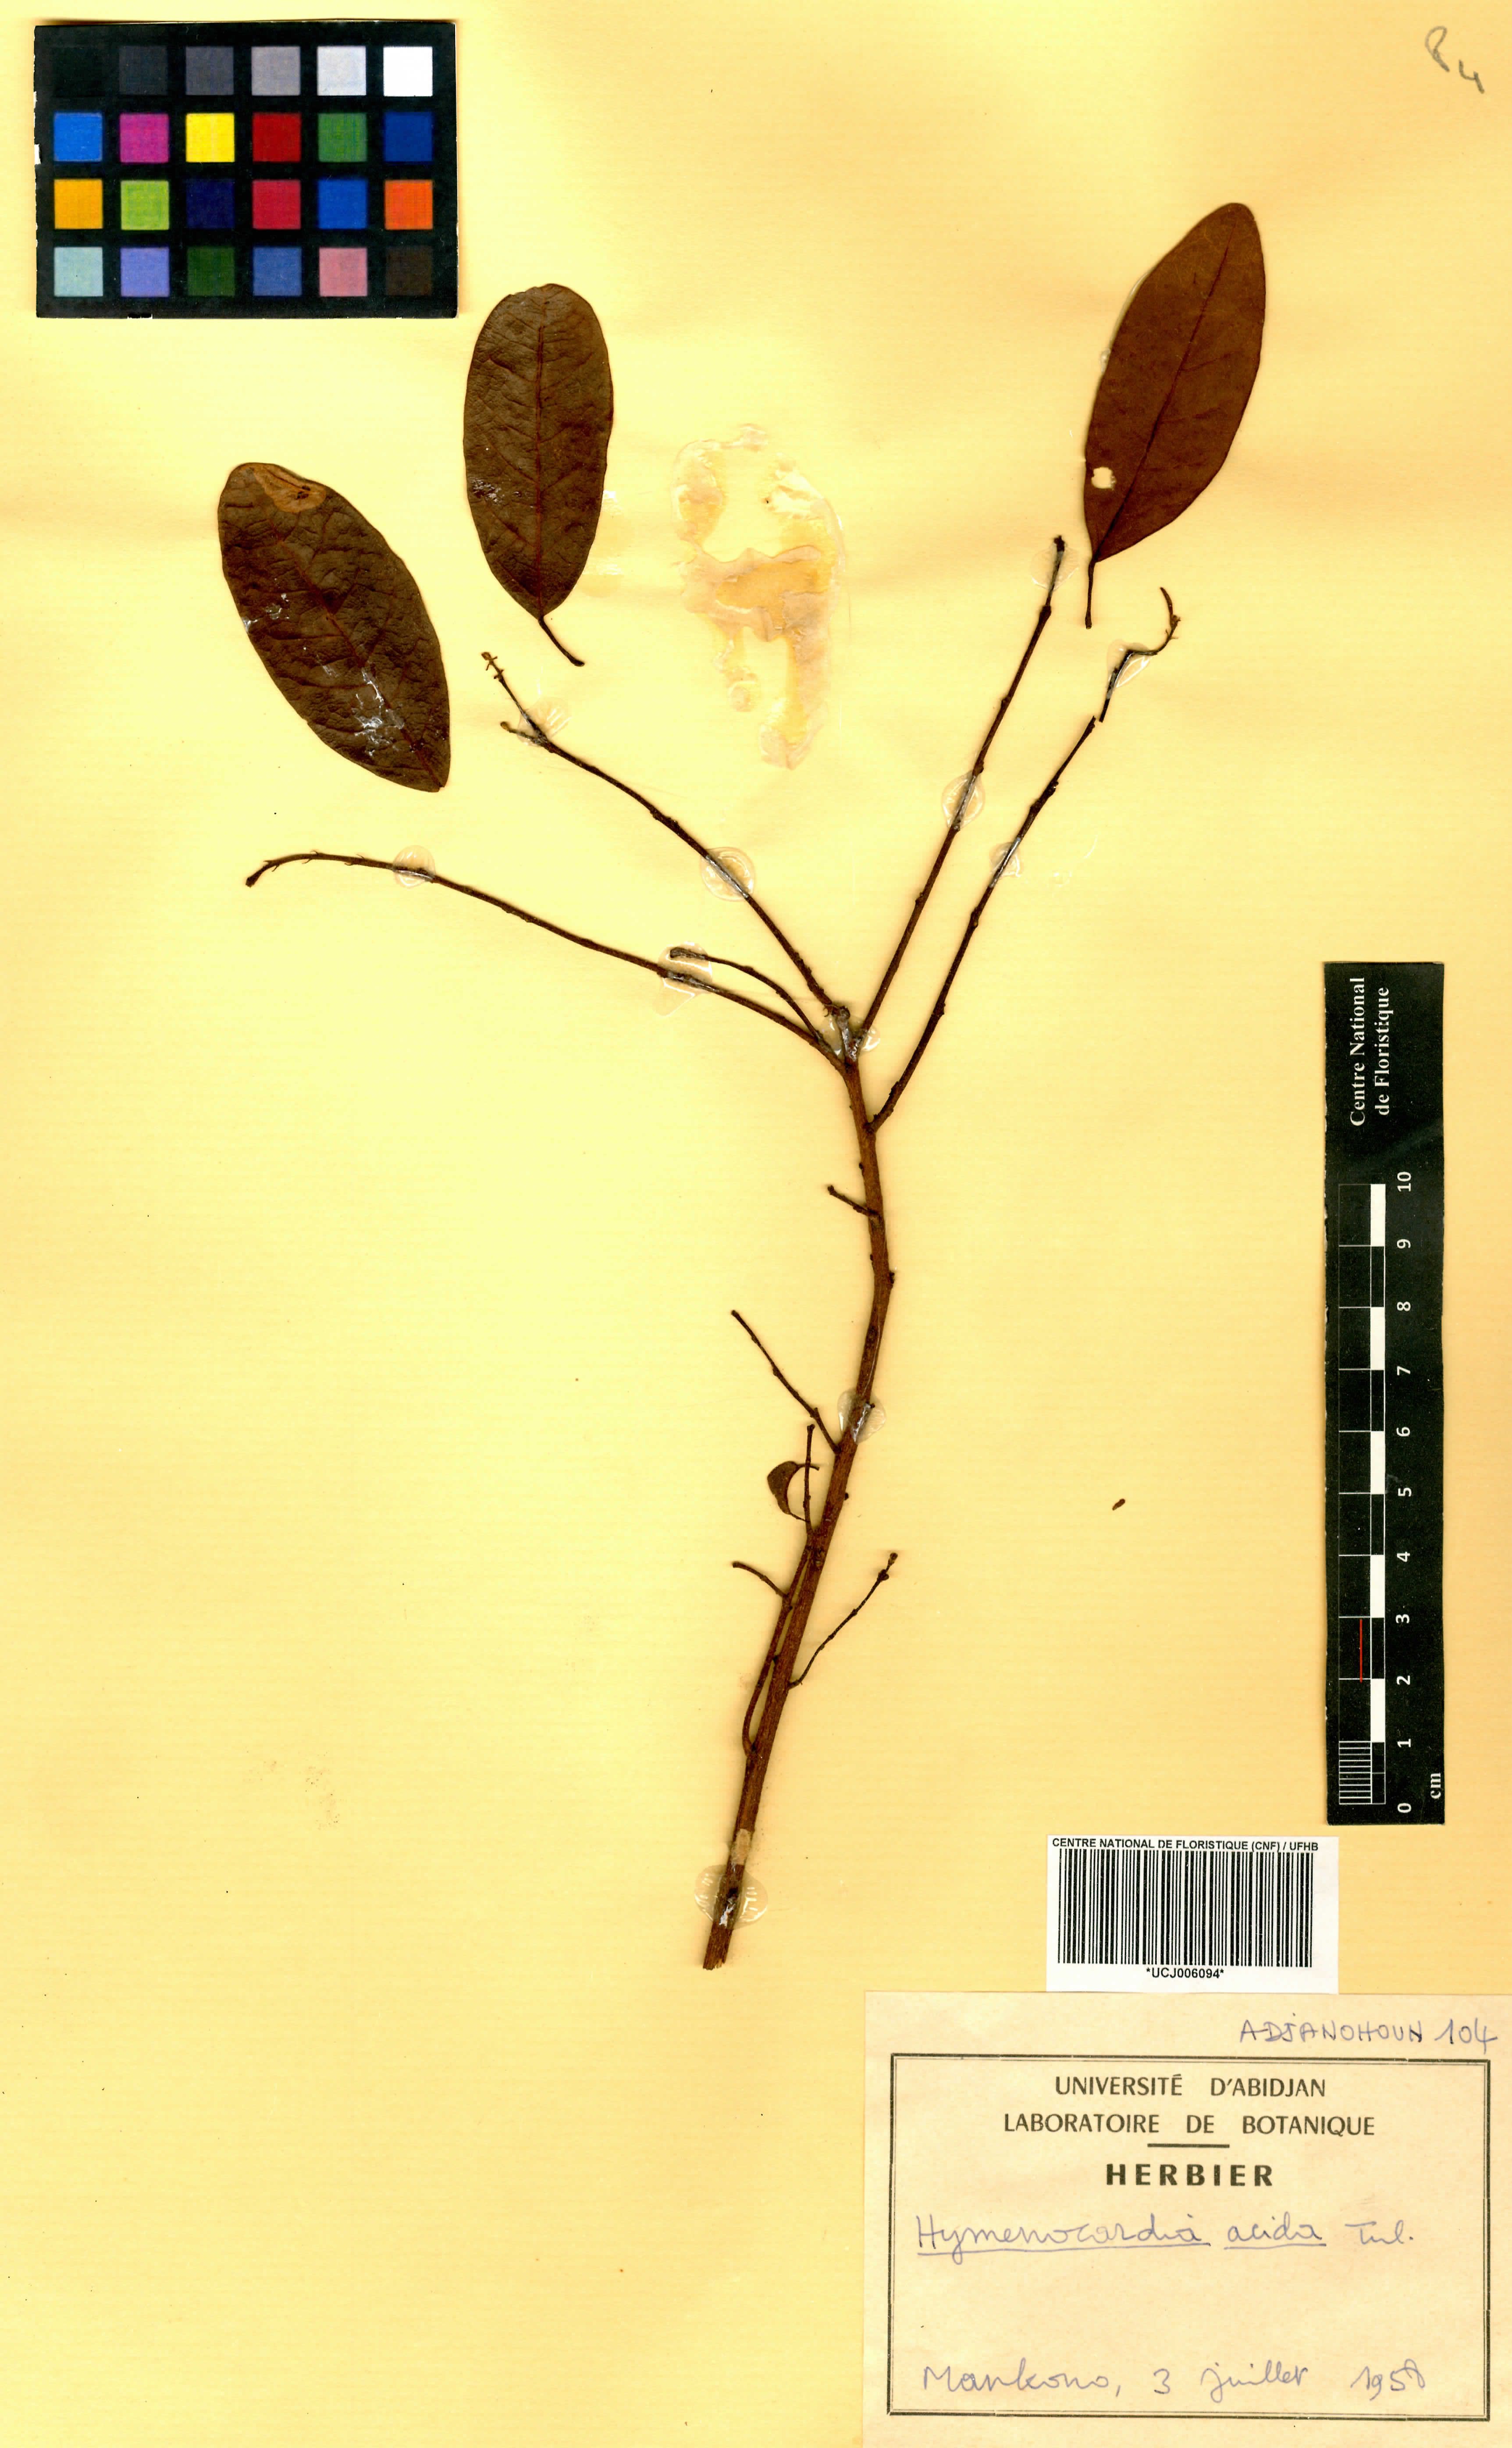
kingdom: Plantae
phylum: Tracheophyta
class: Magnoliopsida
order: Malpighiales
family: Phyllanthaceae
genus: Hymenocardia
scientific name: Hymenocardia acida
